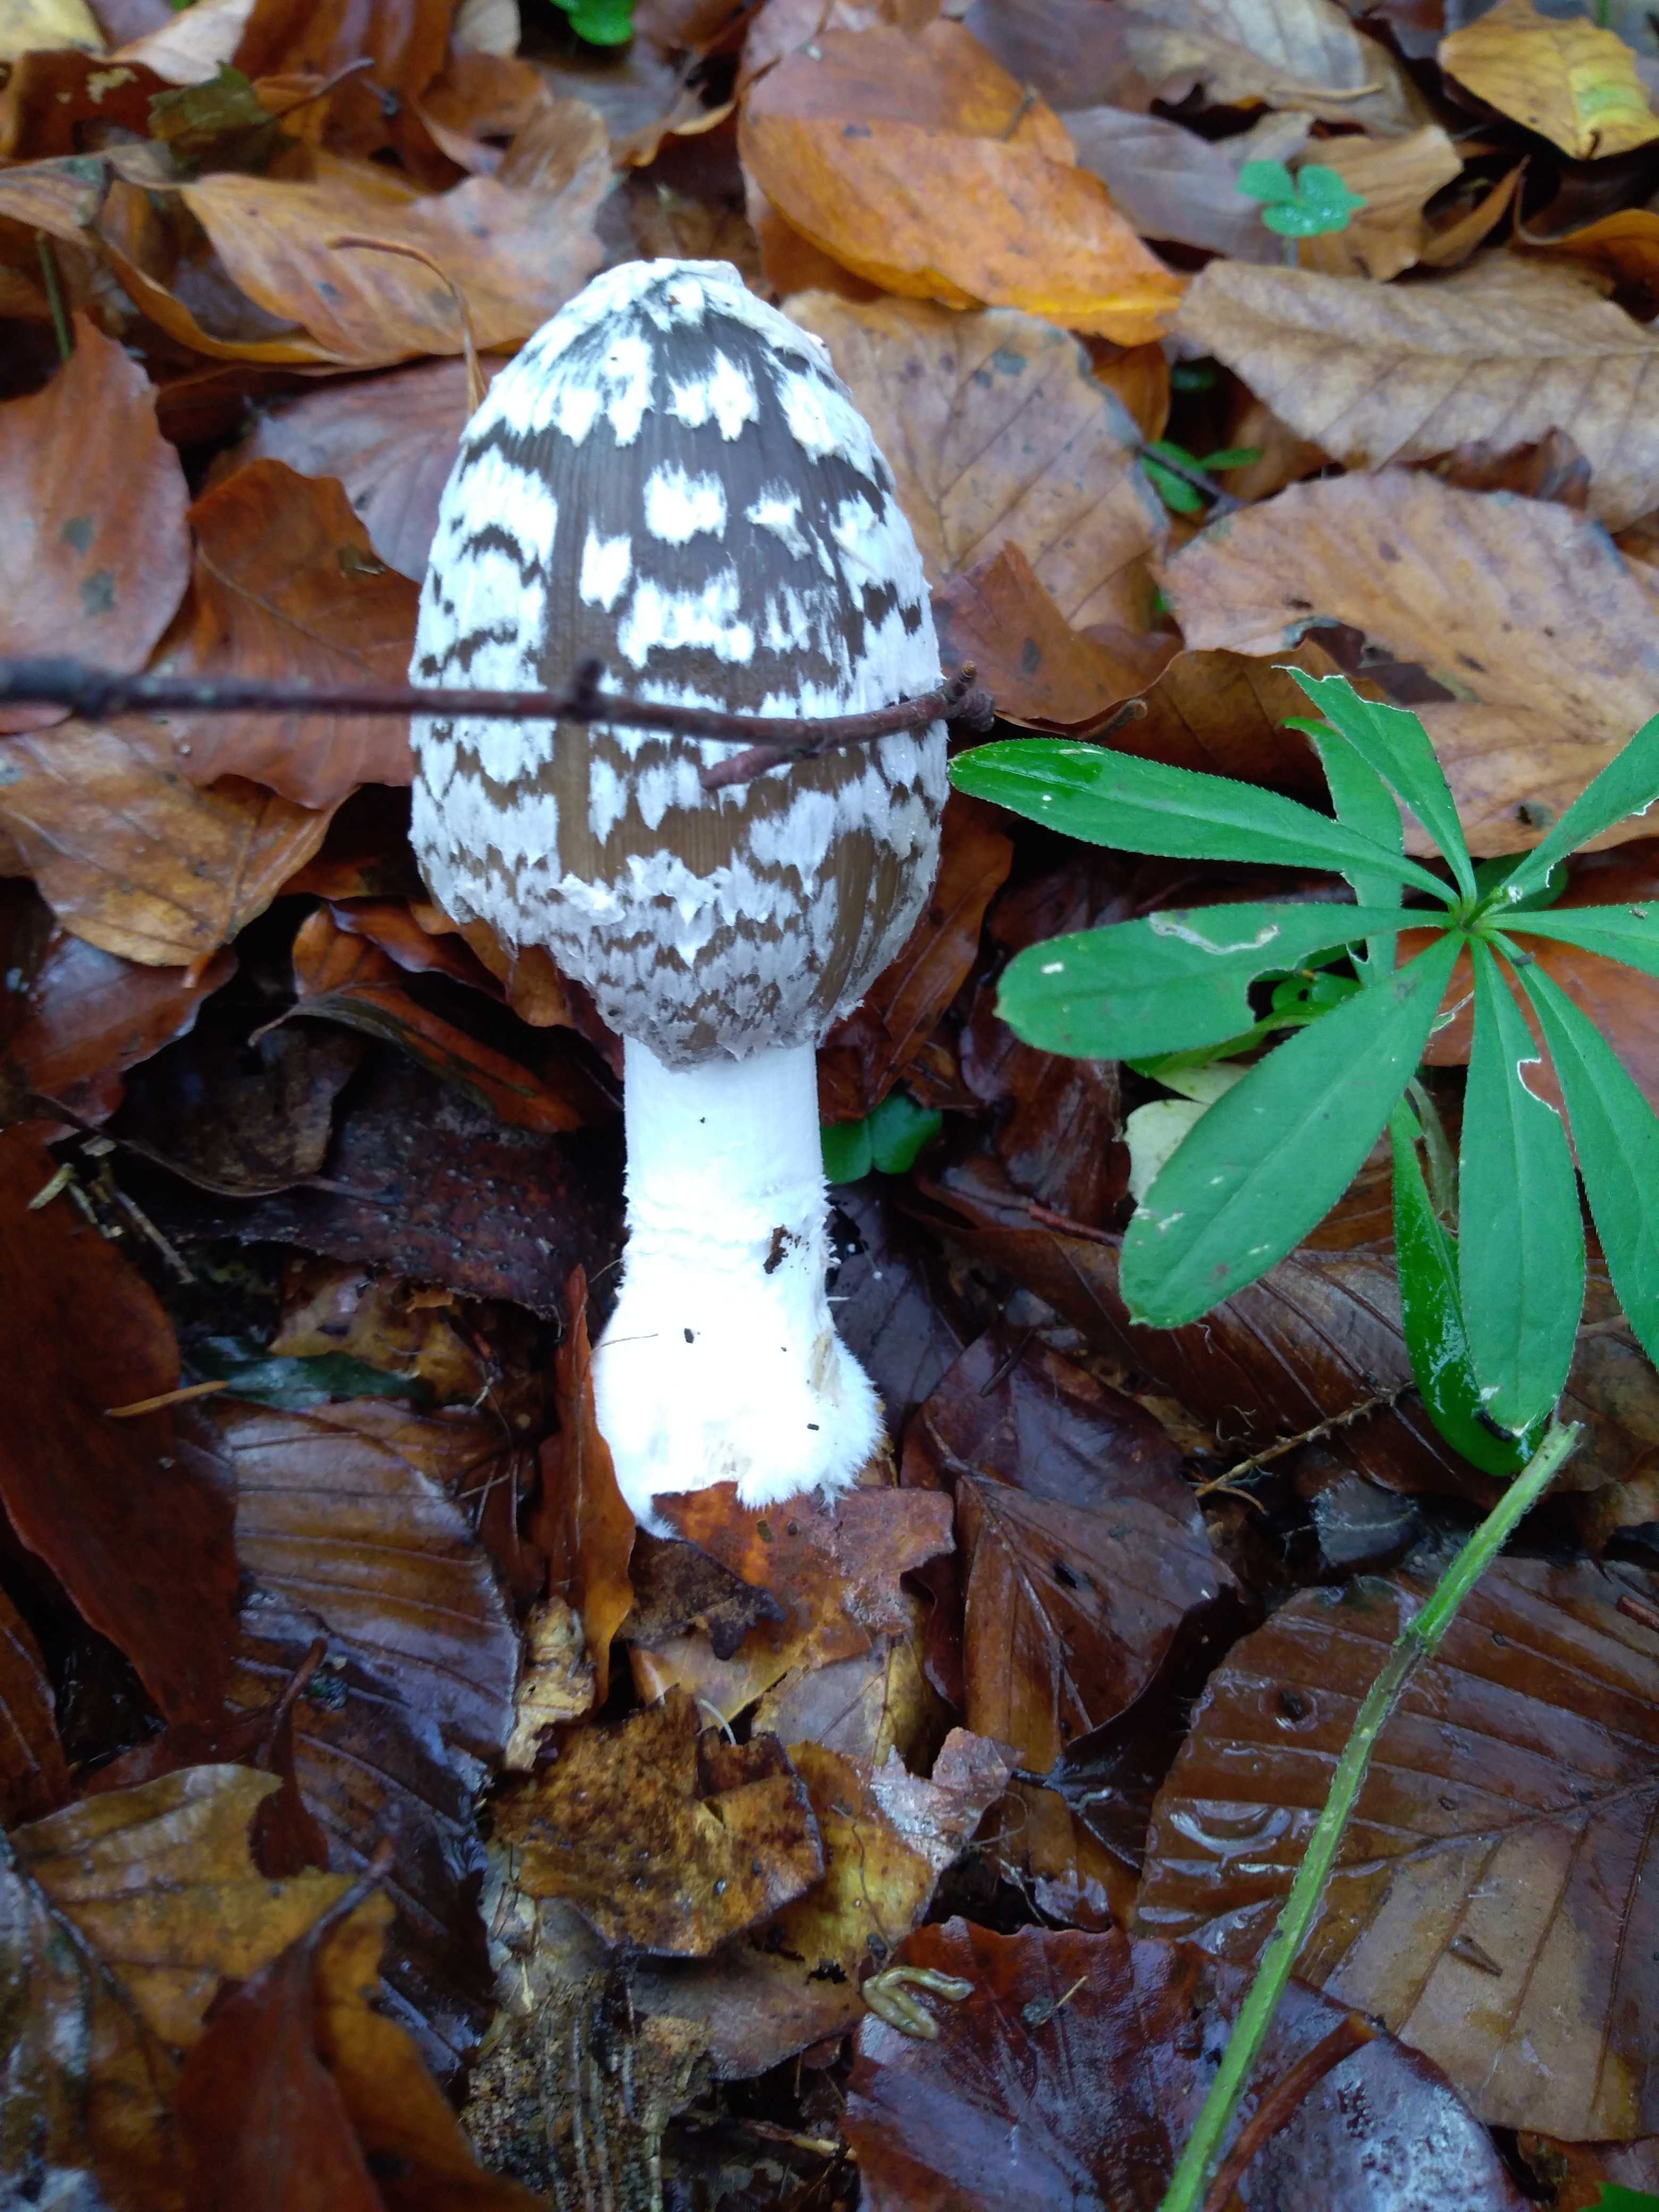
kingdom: Fungi
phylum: Basidiomycota
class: Agaricomycetes
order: Agaricales
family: Psathyrellaceae
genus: Coprinopsis
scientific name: Coprinopsis picacea
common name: skade-blækhat
